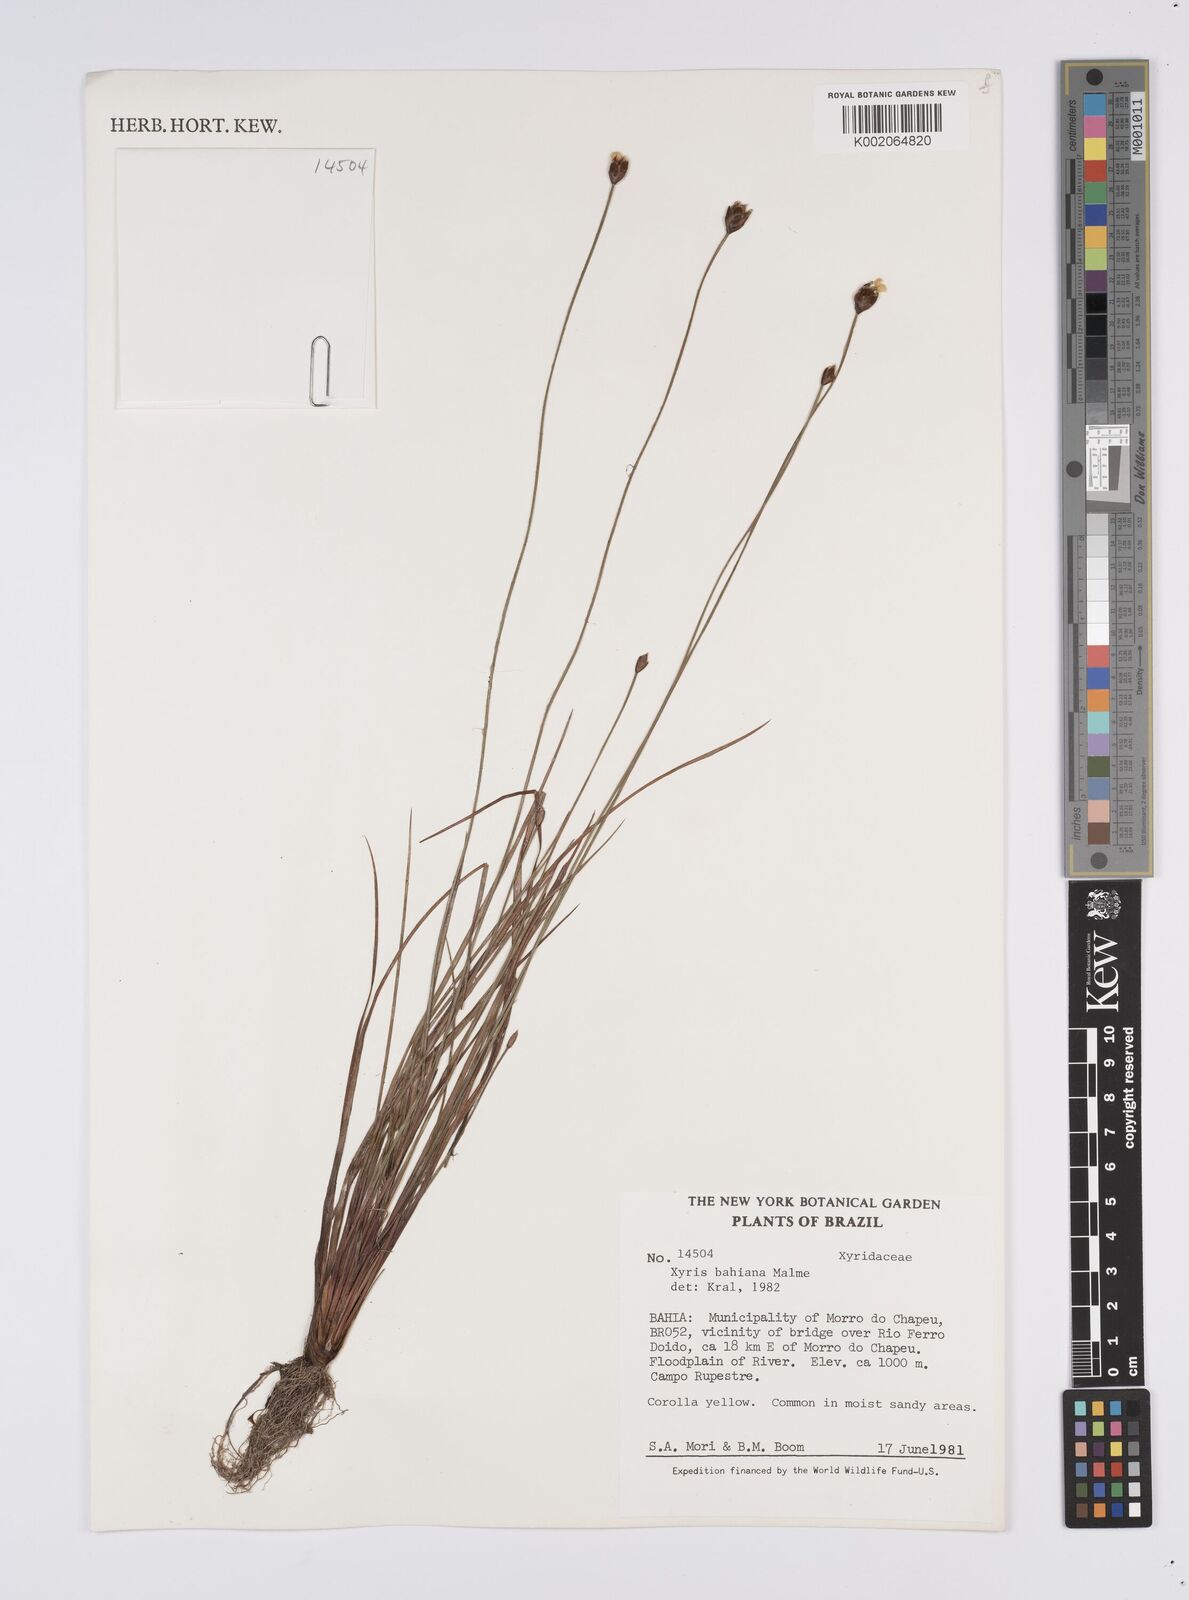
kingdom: Plantae
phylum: Tracheophyta
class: Liliopsida
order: Poales
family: Xyridaceae
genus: Xyris
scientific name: Xyris bahiana
